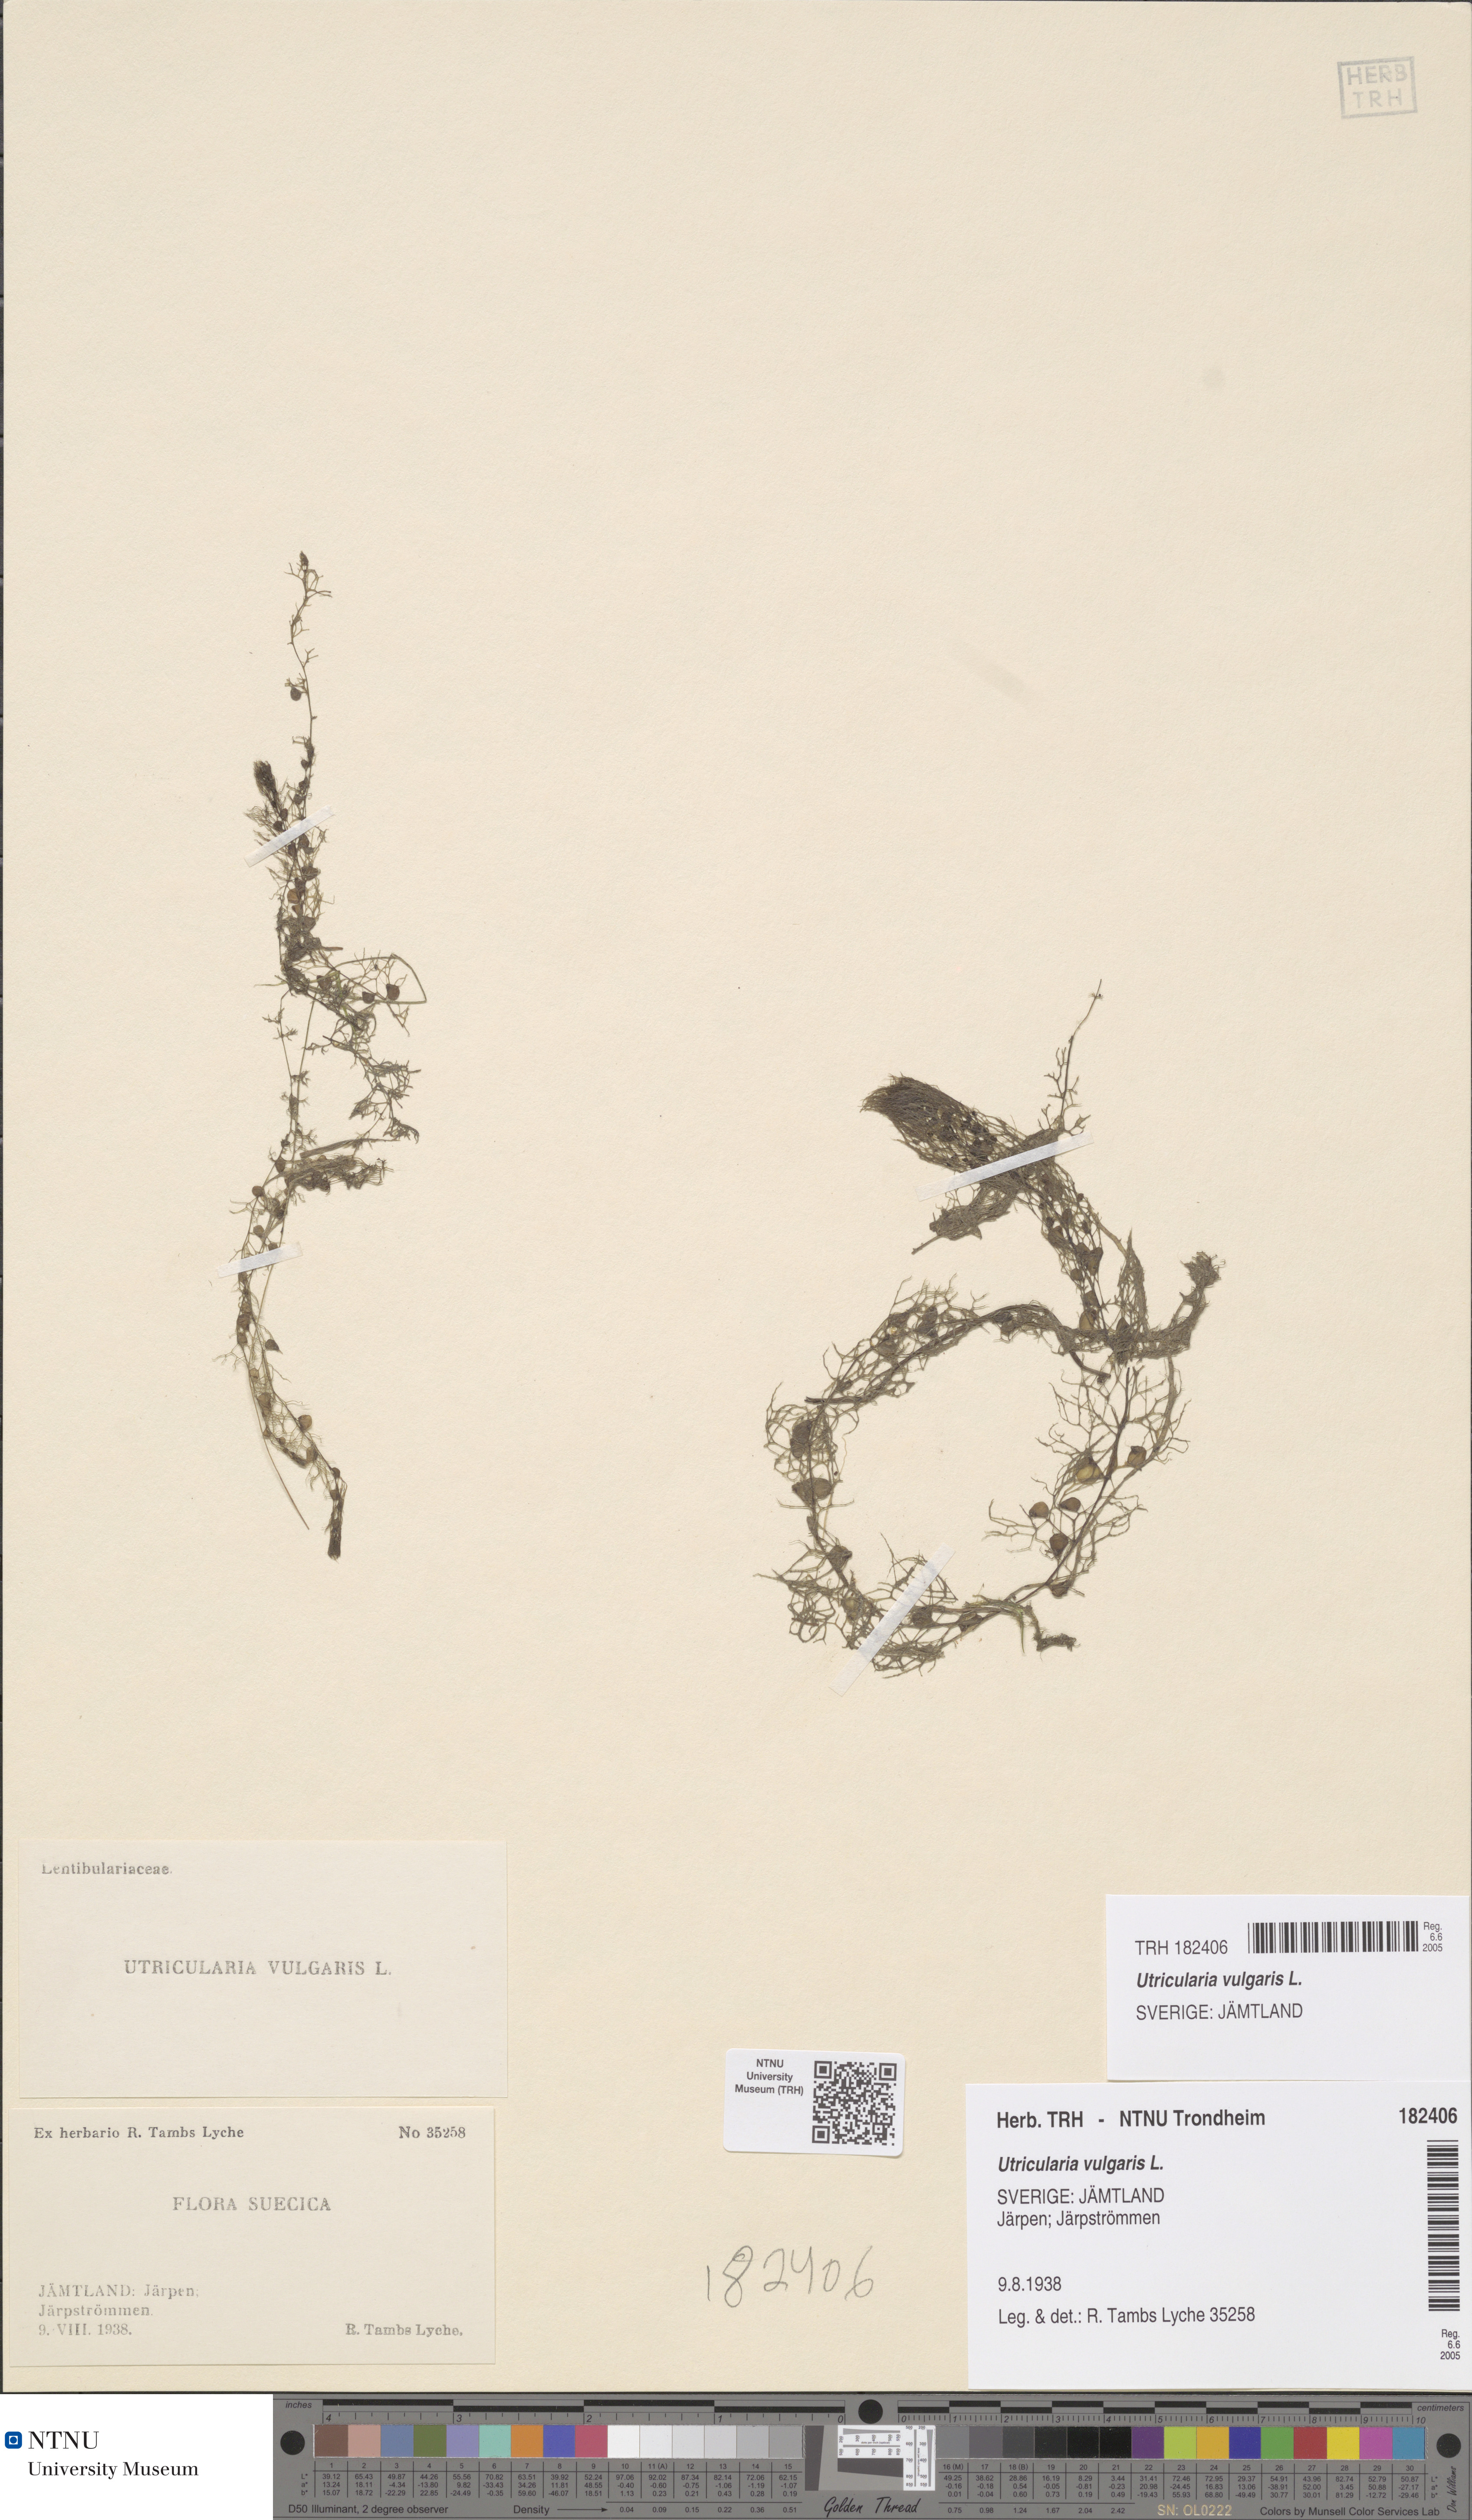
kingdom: Plantae
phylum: Tracheophyta
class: Magnoliopsida
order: Lamiales
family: Lentibulariaceae
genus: Utricularia
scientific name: Utricularia vulgaris
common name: Greater bladderwort
